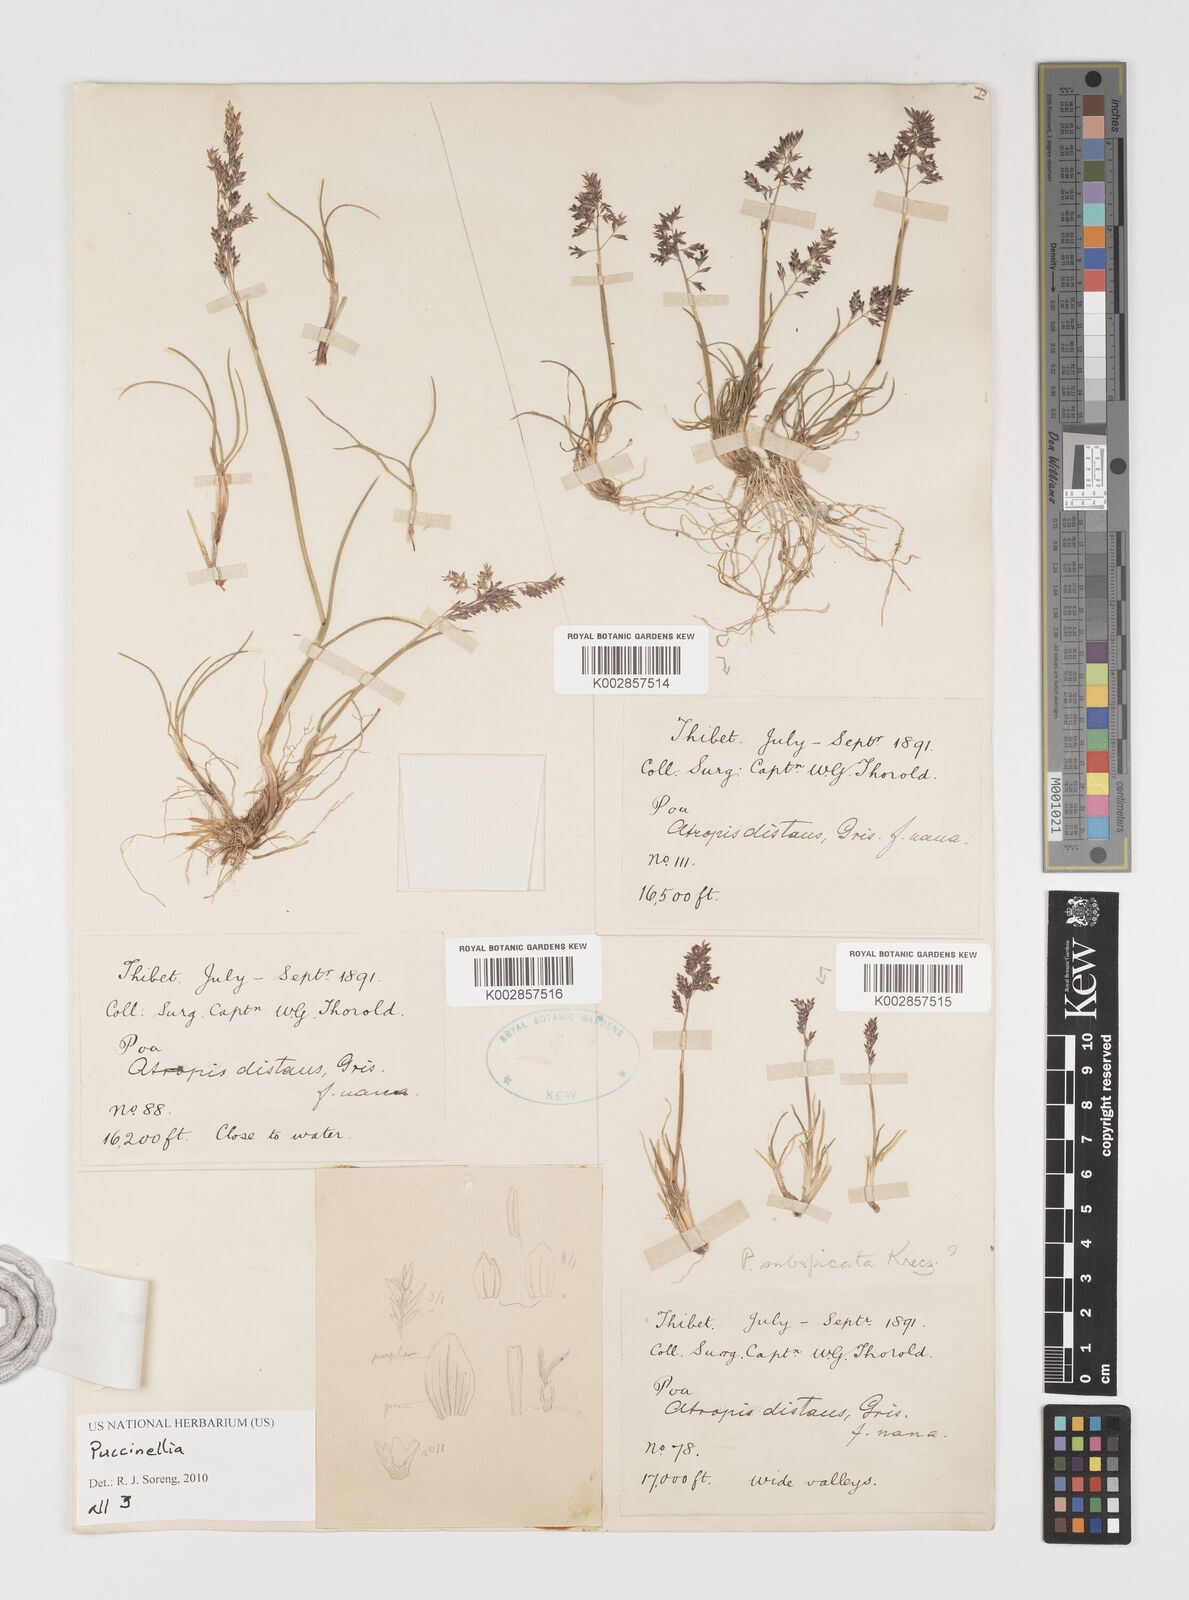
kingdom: Plantae
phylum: Tracheophyta
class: Liliopsida
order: Poales
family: Poaceae
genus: Puccinellia
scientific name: Puccinellia
